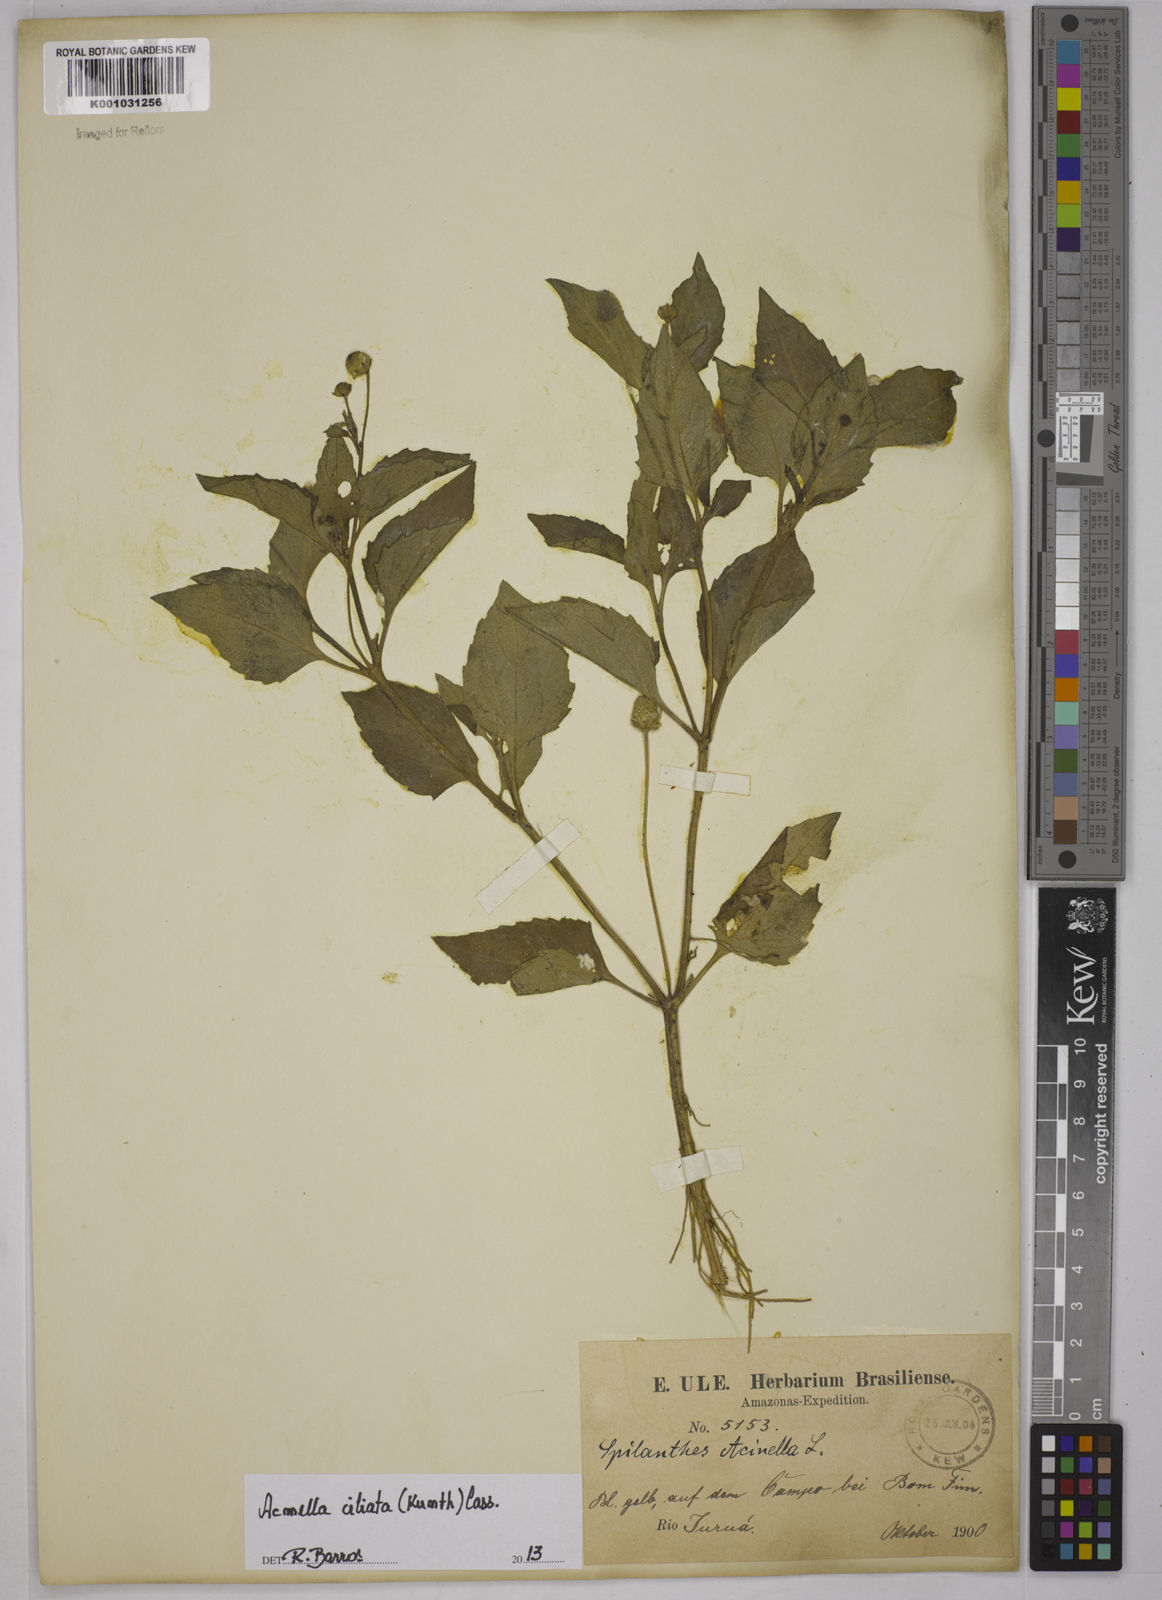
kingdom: Plantae
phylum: Tracheophyta
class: Magnoliopsida
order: Asterales
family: Asteraceae
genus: Acmella
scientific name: Acmella ciliata
